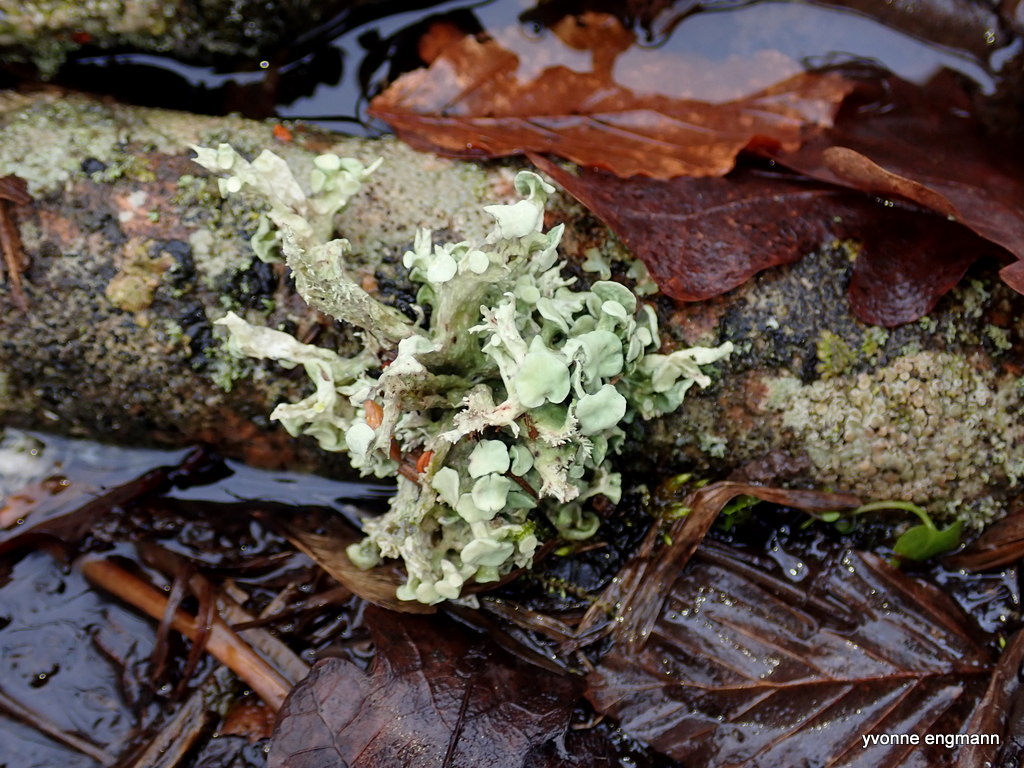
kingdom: Fungi
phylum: Ascomycota
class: Lecanoromycetes
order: Lecanorales
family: Ramalinaceae
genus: Ramalina
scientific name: Ramalina fastigiata
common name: tue-grenlav
